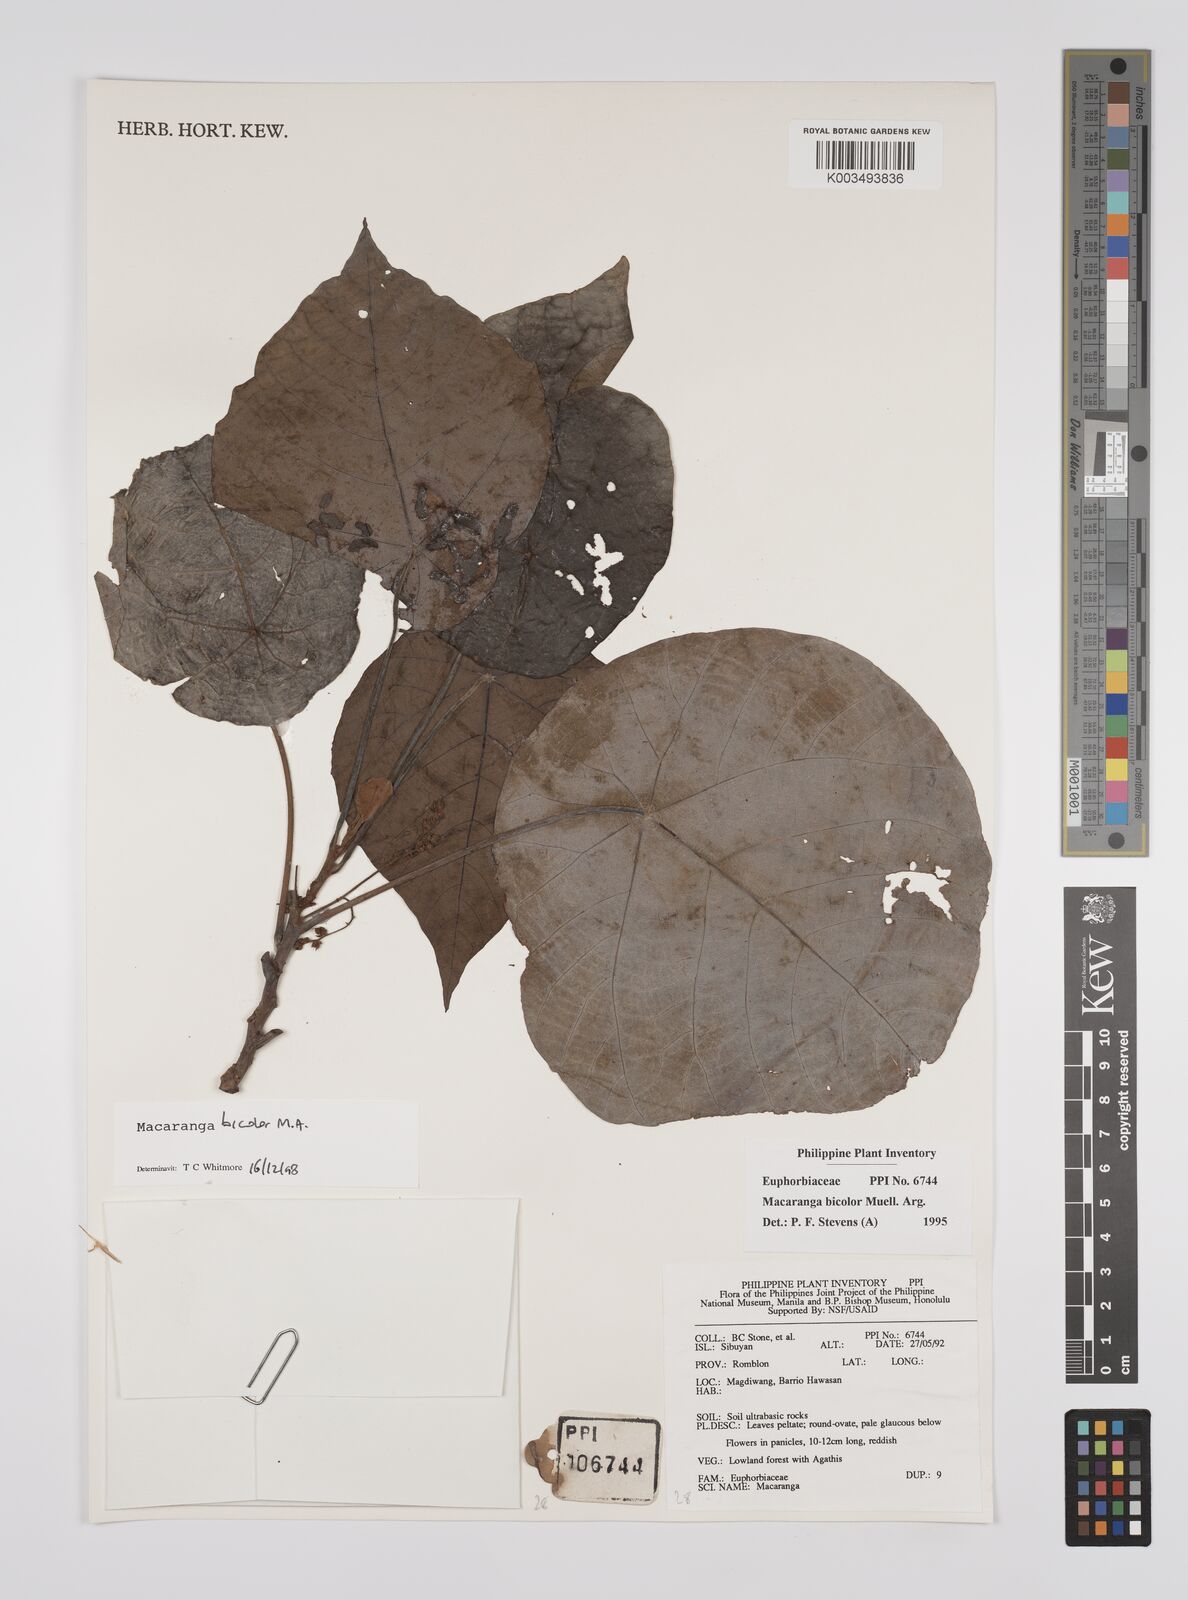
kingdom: Plantae
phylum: Tracheophyta
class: Magnoliopsida
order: Malpighiales
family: Euphorbiaceae
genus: Macaranga
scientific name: Macaranga bicolor
